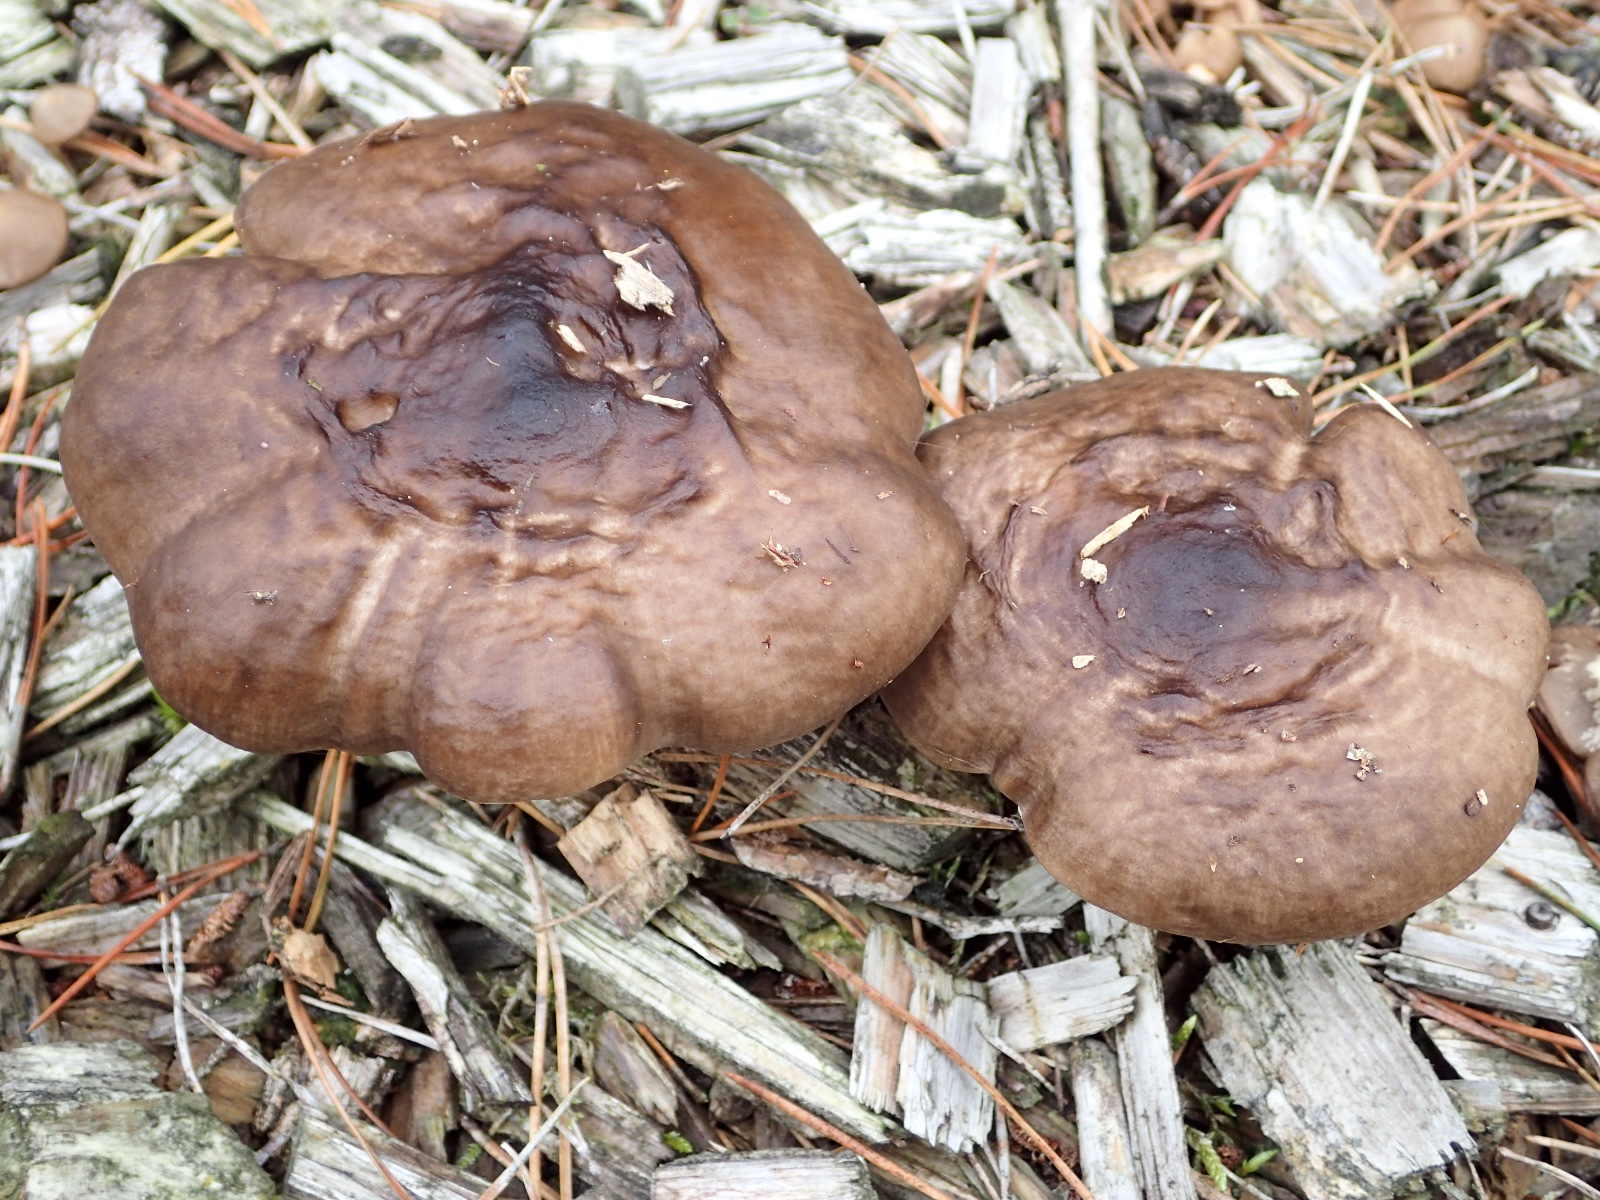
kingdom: Fungi
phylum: Basidiomycota
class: Agaricomycetes
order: Agaricales
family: Pluteaceae
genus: Pluteus
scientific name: Pluteus cervinus
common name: sodfarvet skærmhat
